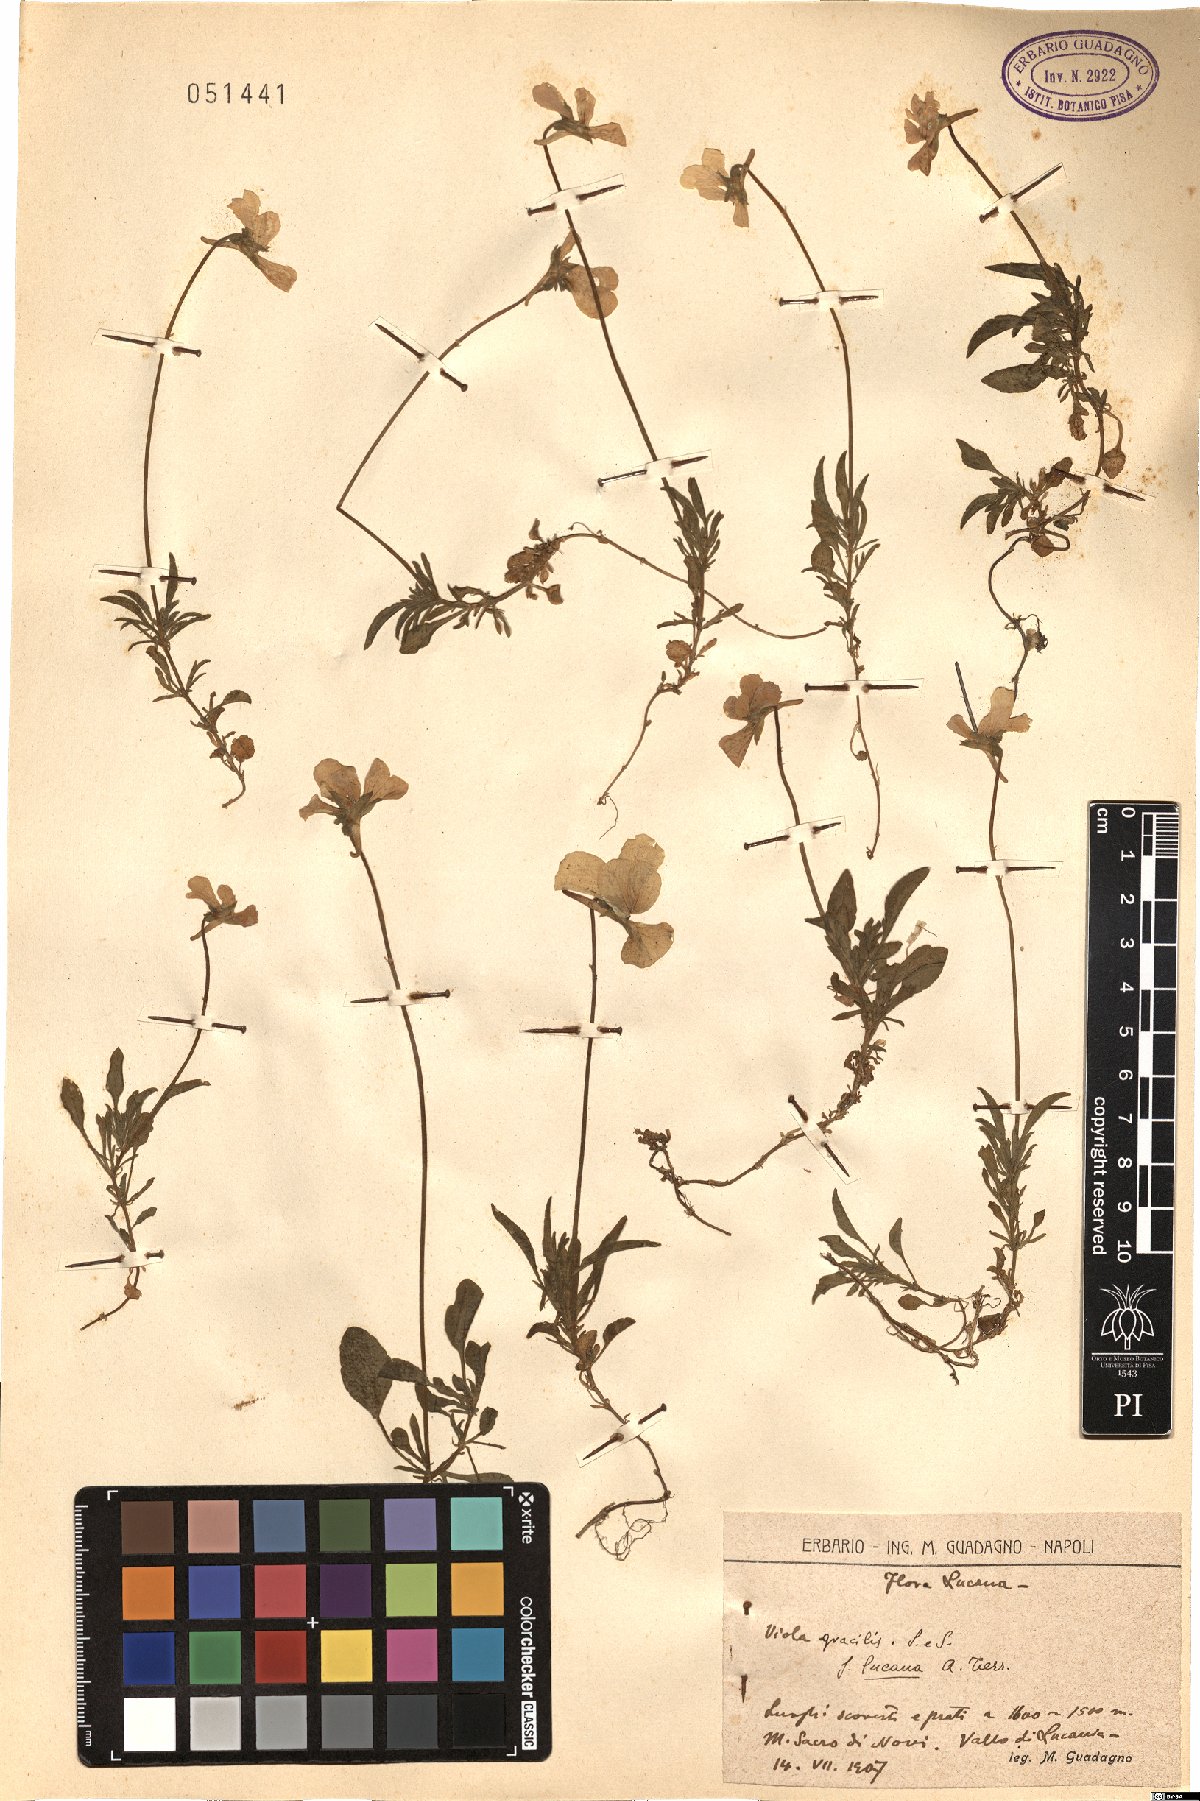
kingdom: Plantae
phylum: Tracheophyta
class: Magnoliopsida
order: Malpighiales
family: Violaceae
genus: Viola
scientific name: Viola gracilis
